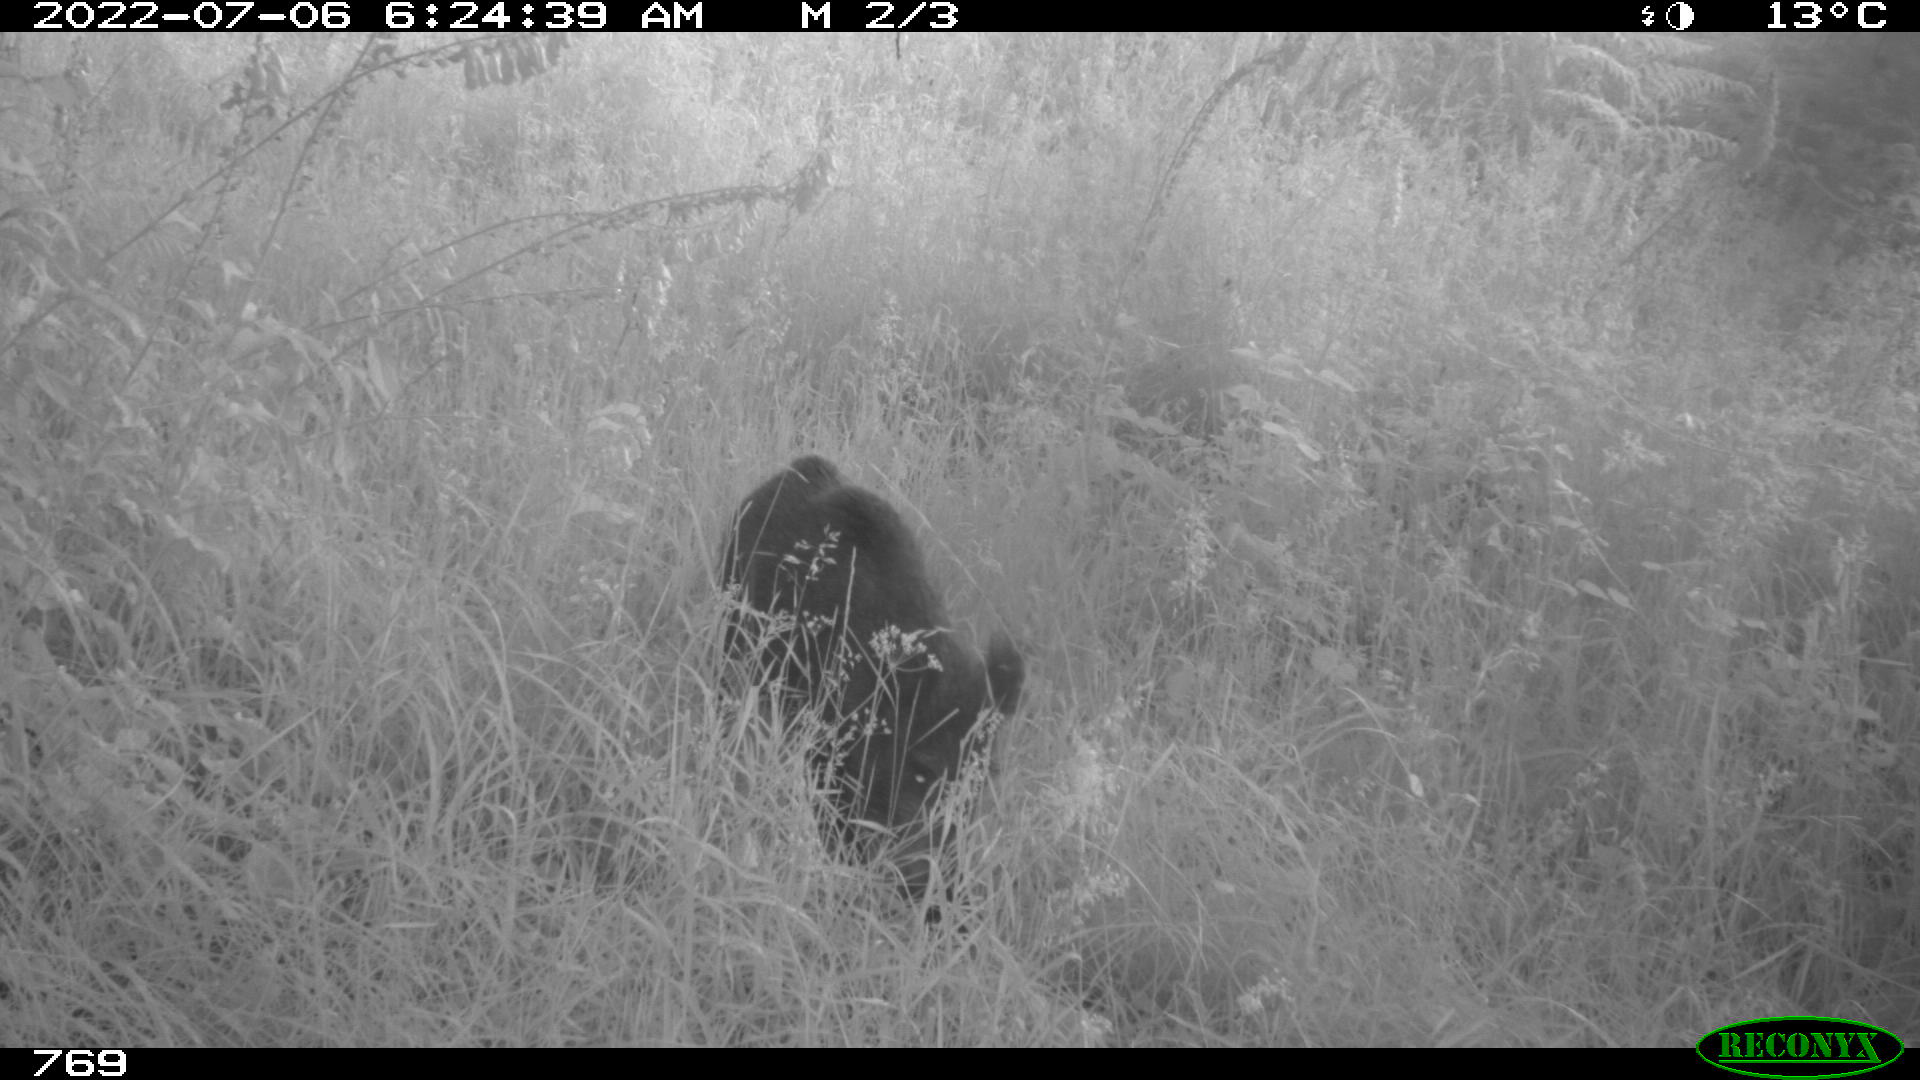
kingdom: Animalia
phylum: Chordata
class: Mammalia
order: Artiodactyla
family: Suidae
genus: Sus
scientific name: Sus scrofa
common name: Wild boar
